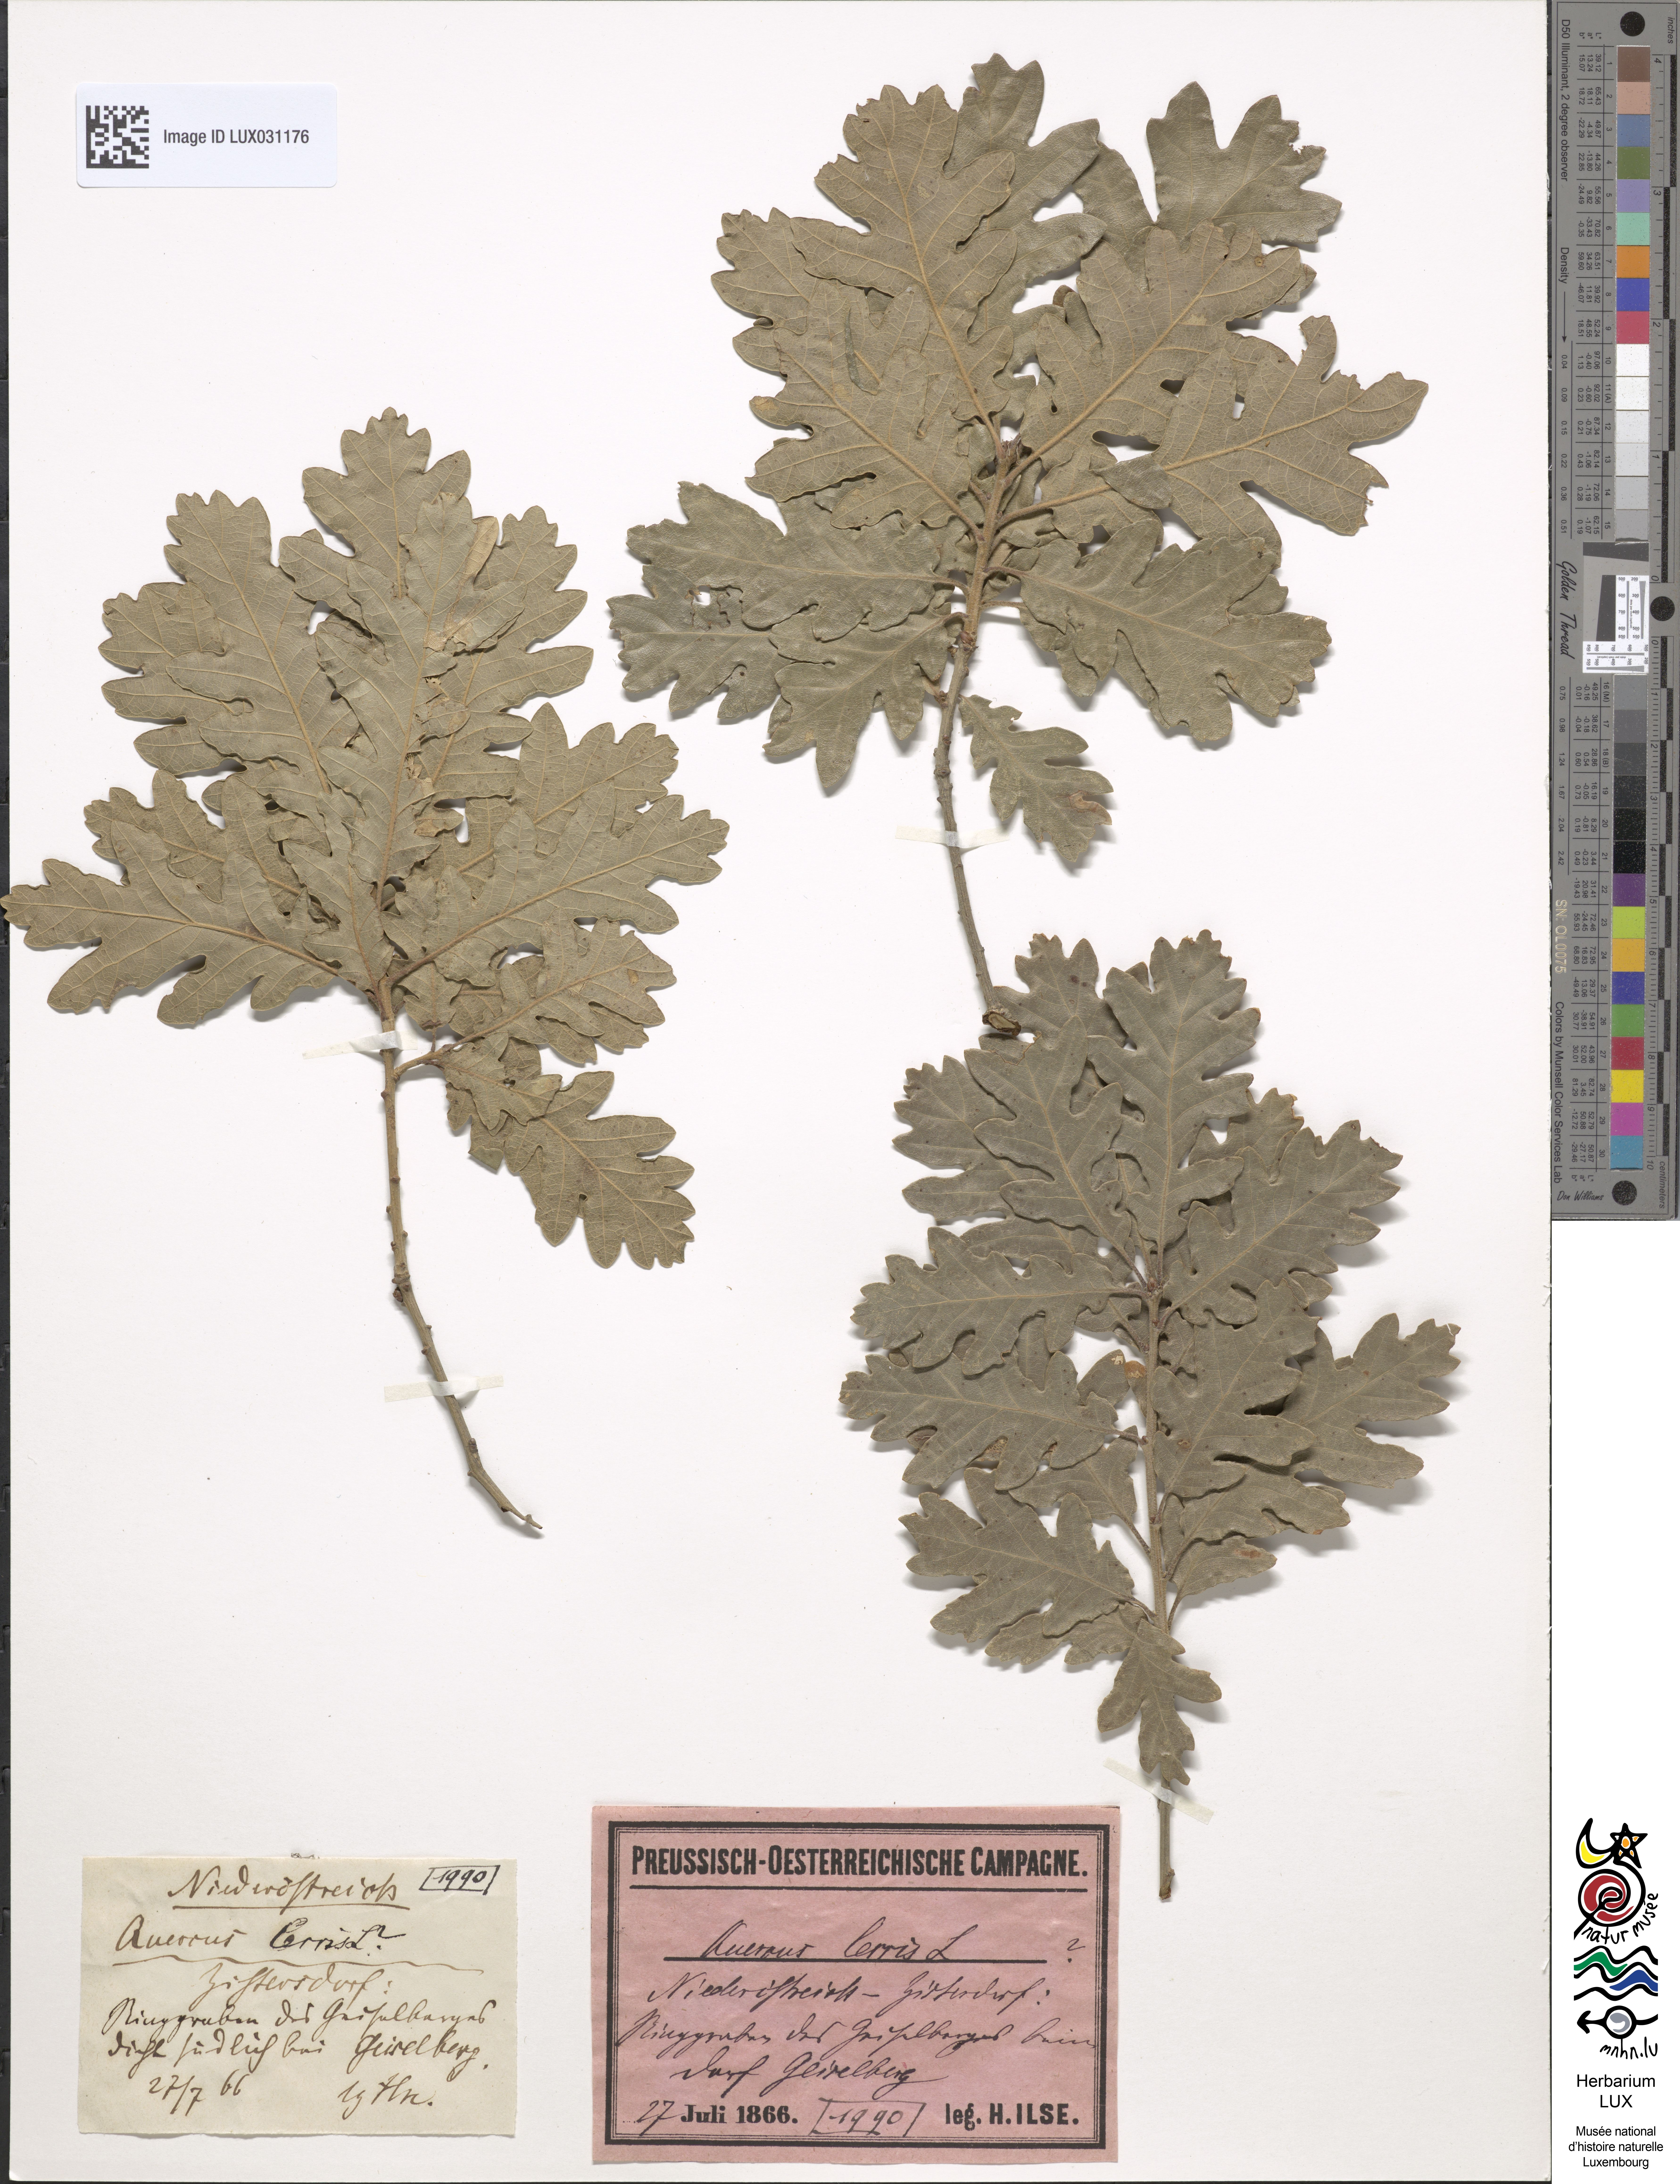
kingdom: Plantae
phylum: Tracheophyta
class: Magnoliopsida
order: Fagales
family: Fagaceae
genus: Quercus
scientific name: Quercus cerris
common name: Turkey oak
